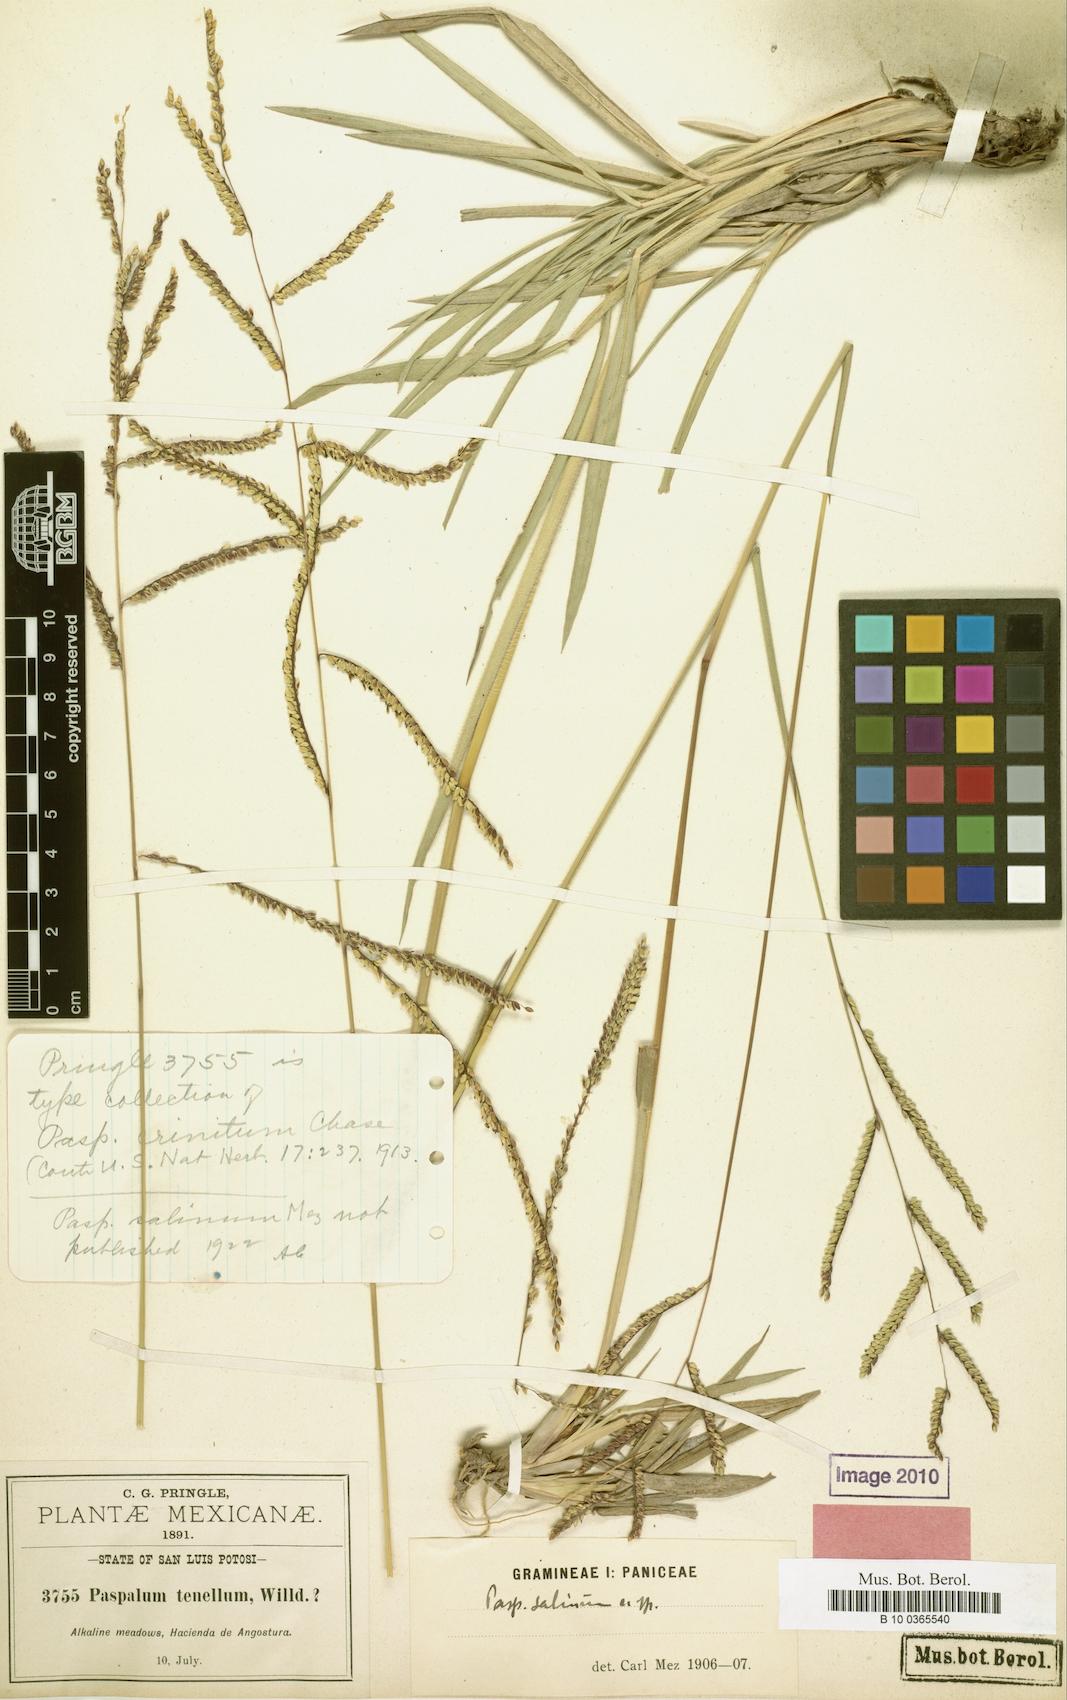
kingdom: Plantae
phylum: Tracheophyta
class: Liliopsida
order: Poales
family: Poaceae
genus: Paspalum
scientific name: Paspalum crinitum
